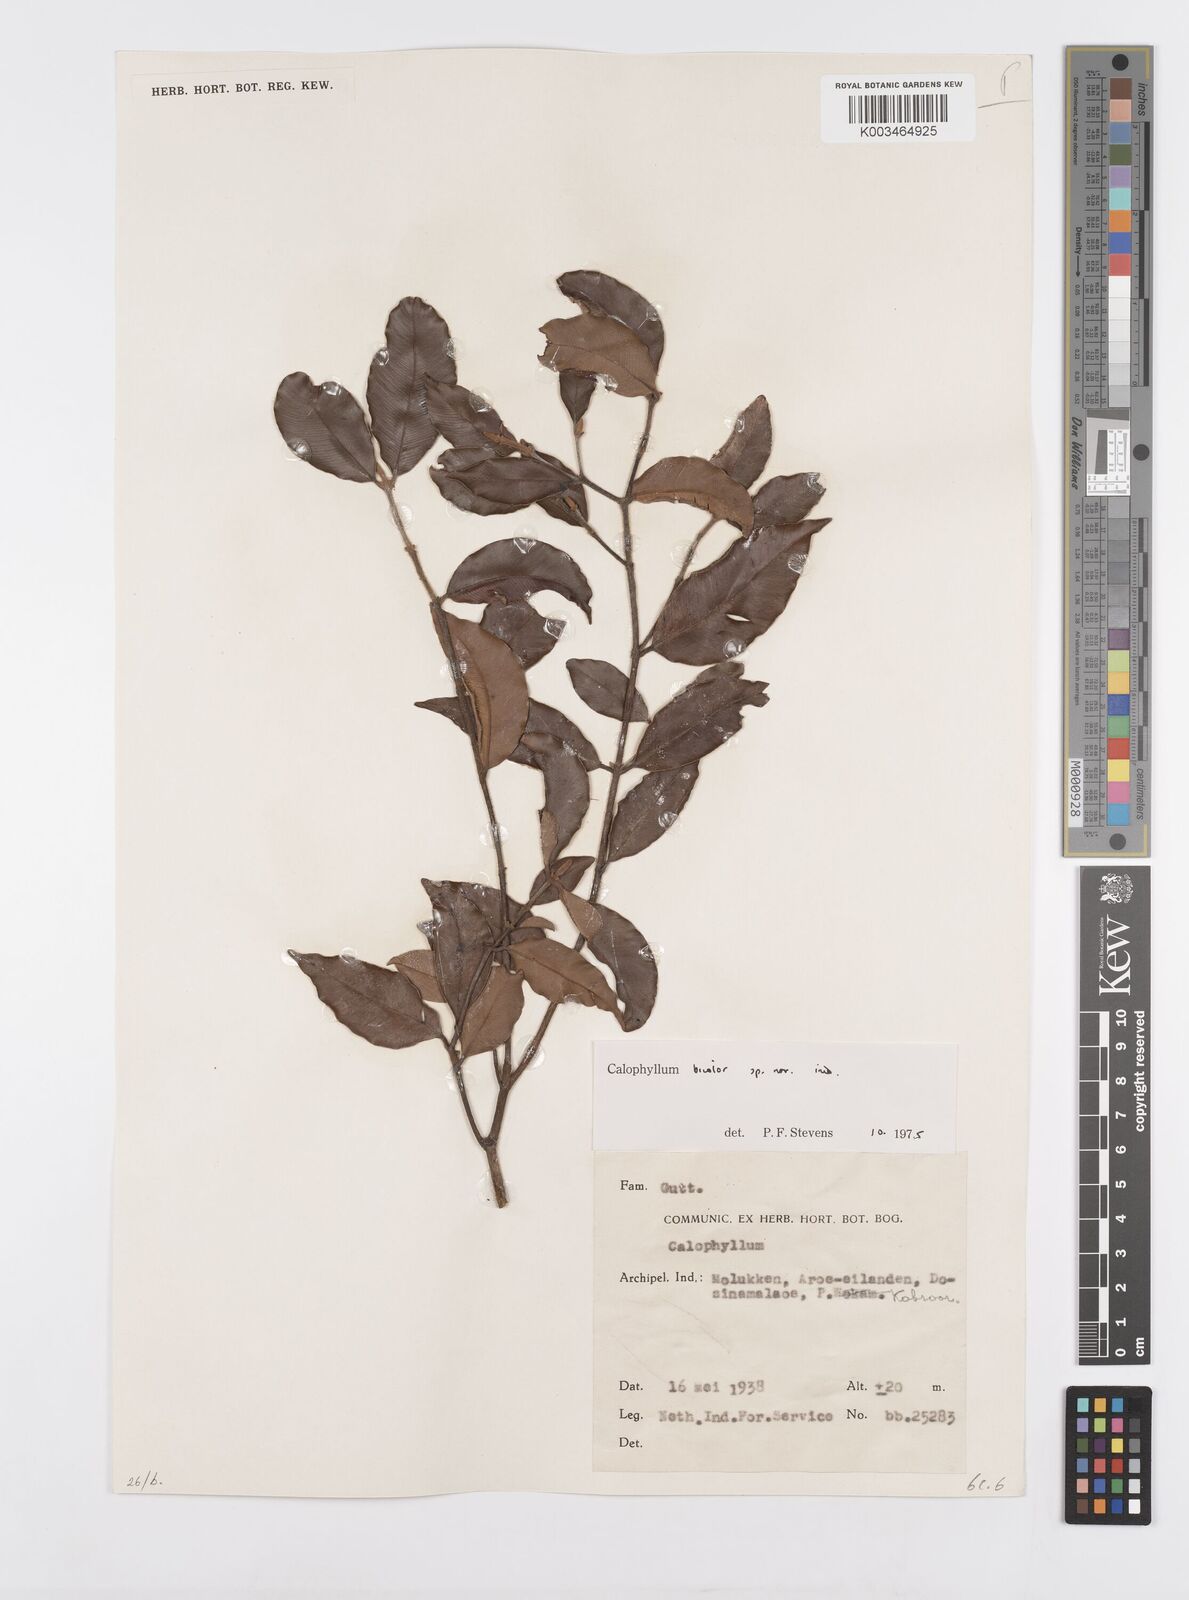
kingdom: Plantae
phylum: Tracheophyta
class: Magnoliopsida
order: Malpighiales
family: Calophyllaceae
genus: Calophyllum
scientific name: Calophyllum bicolor
